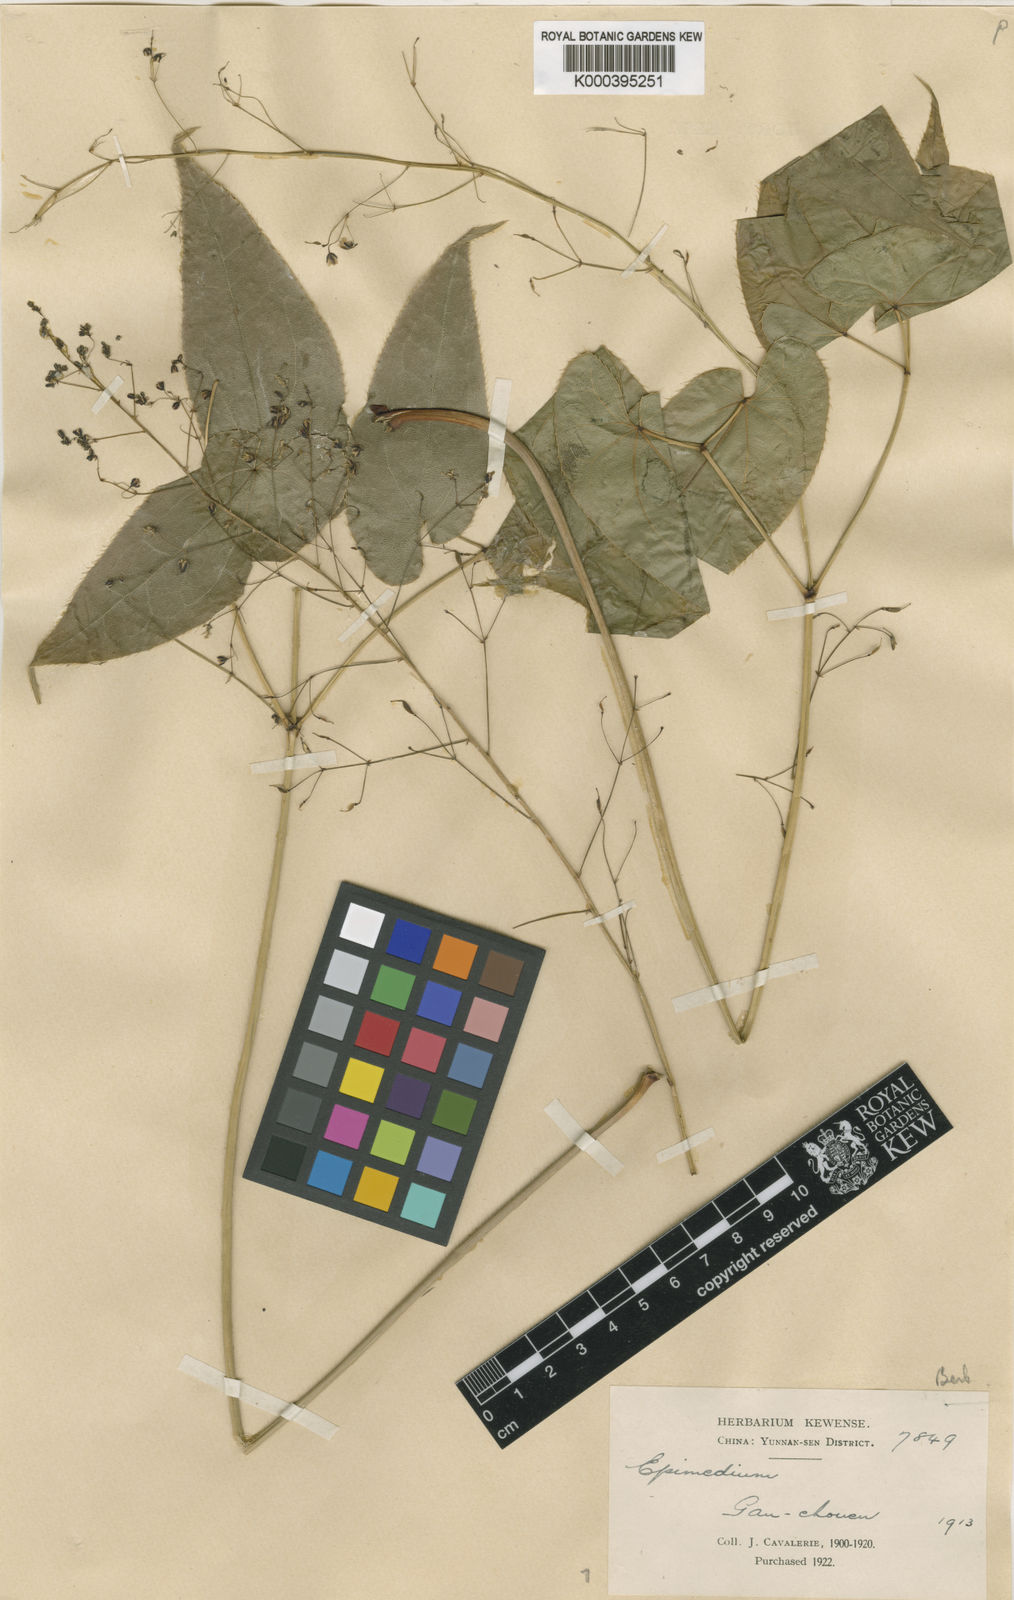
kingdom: Plantae
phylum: Tracheophyta
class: Magnoliopsida
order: Ranunculales
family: Berberidaceae
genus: Epimedium
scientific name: Epimedium pubescens
